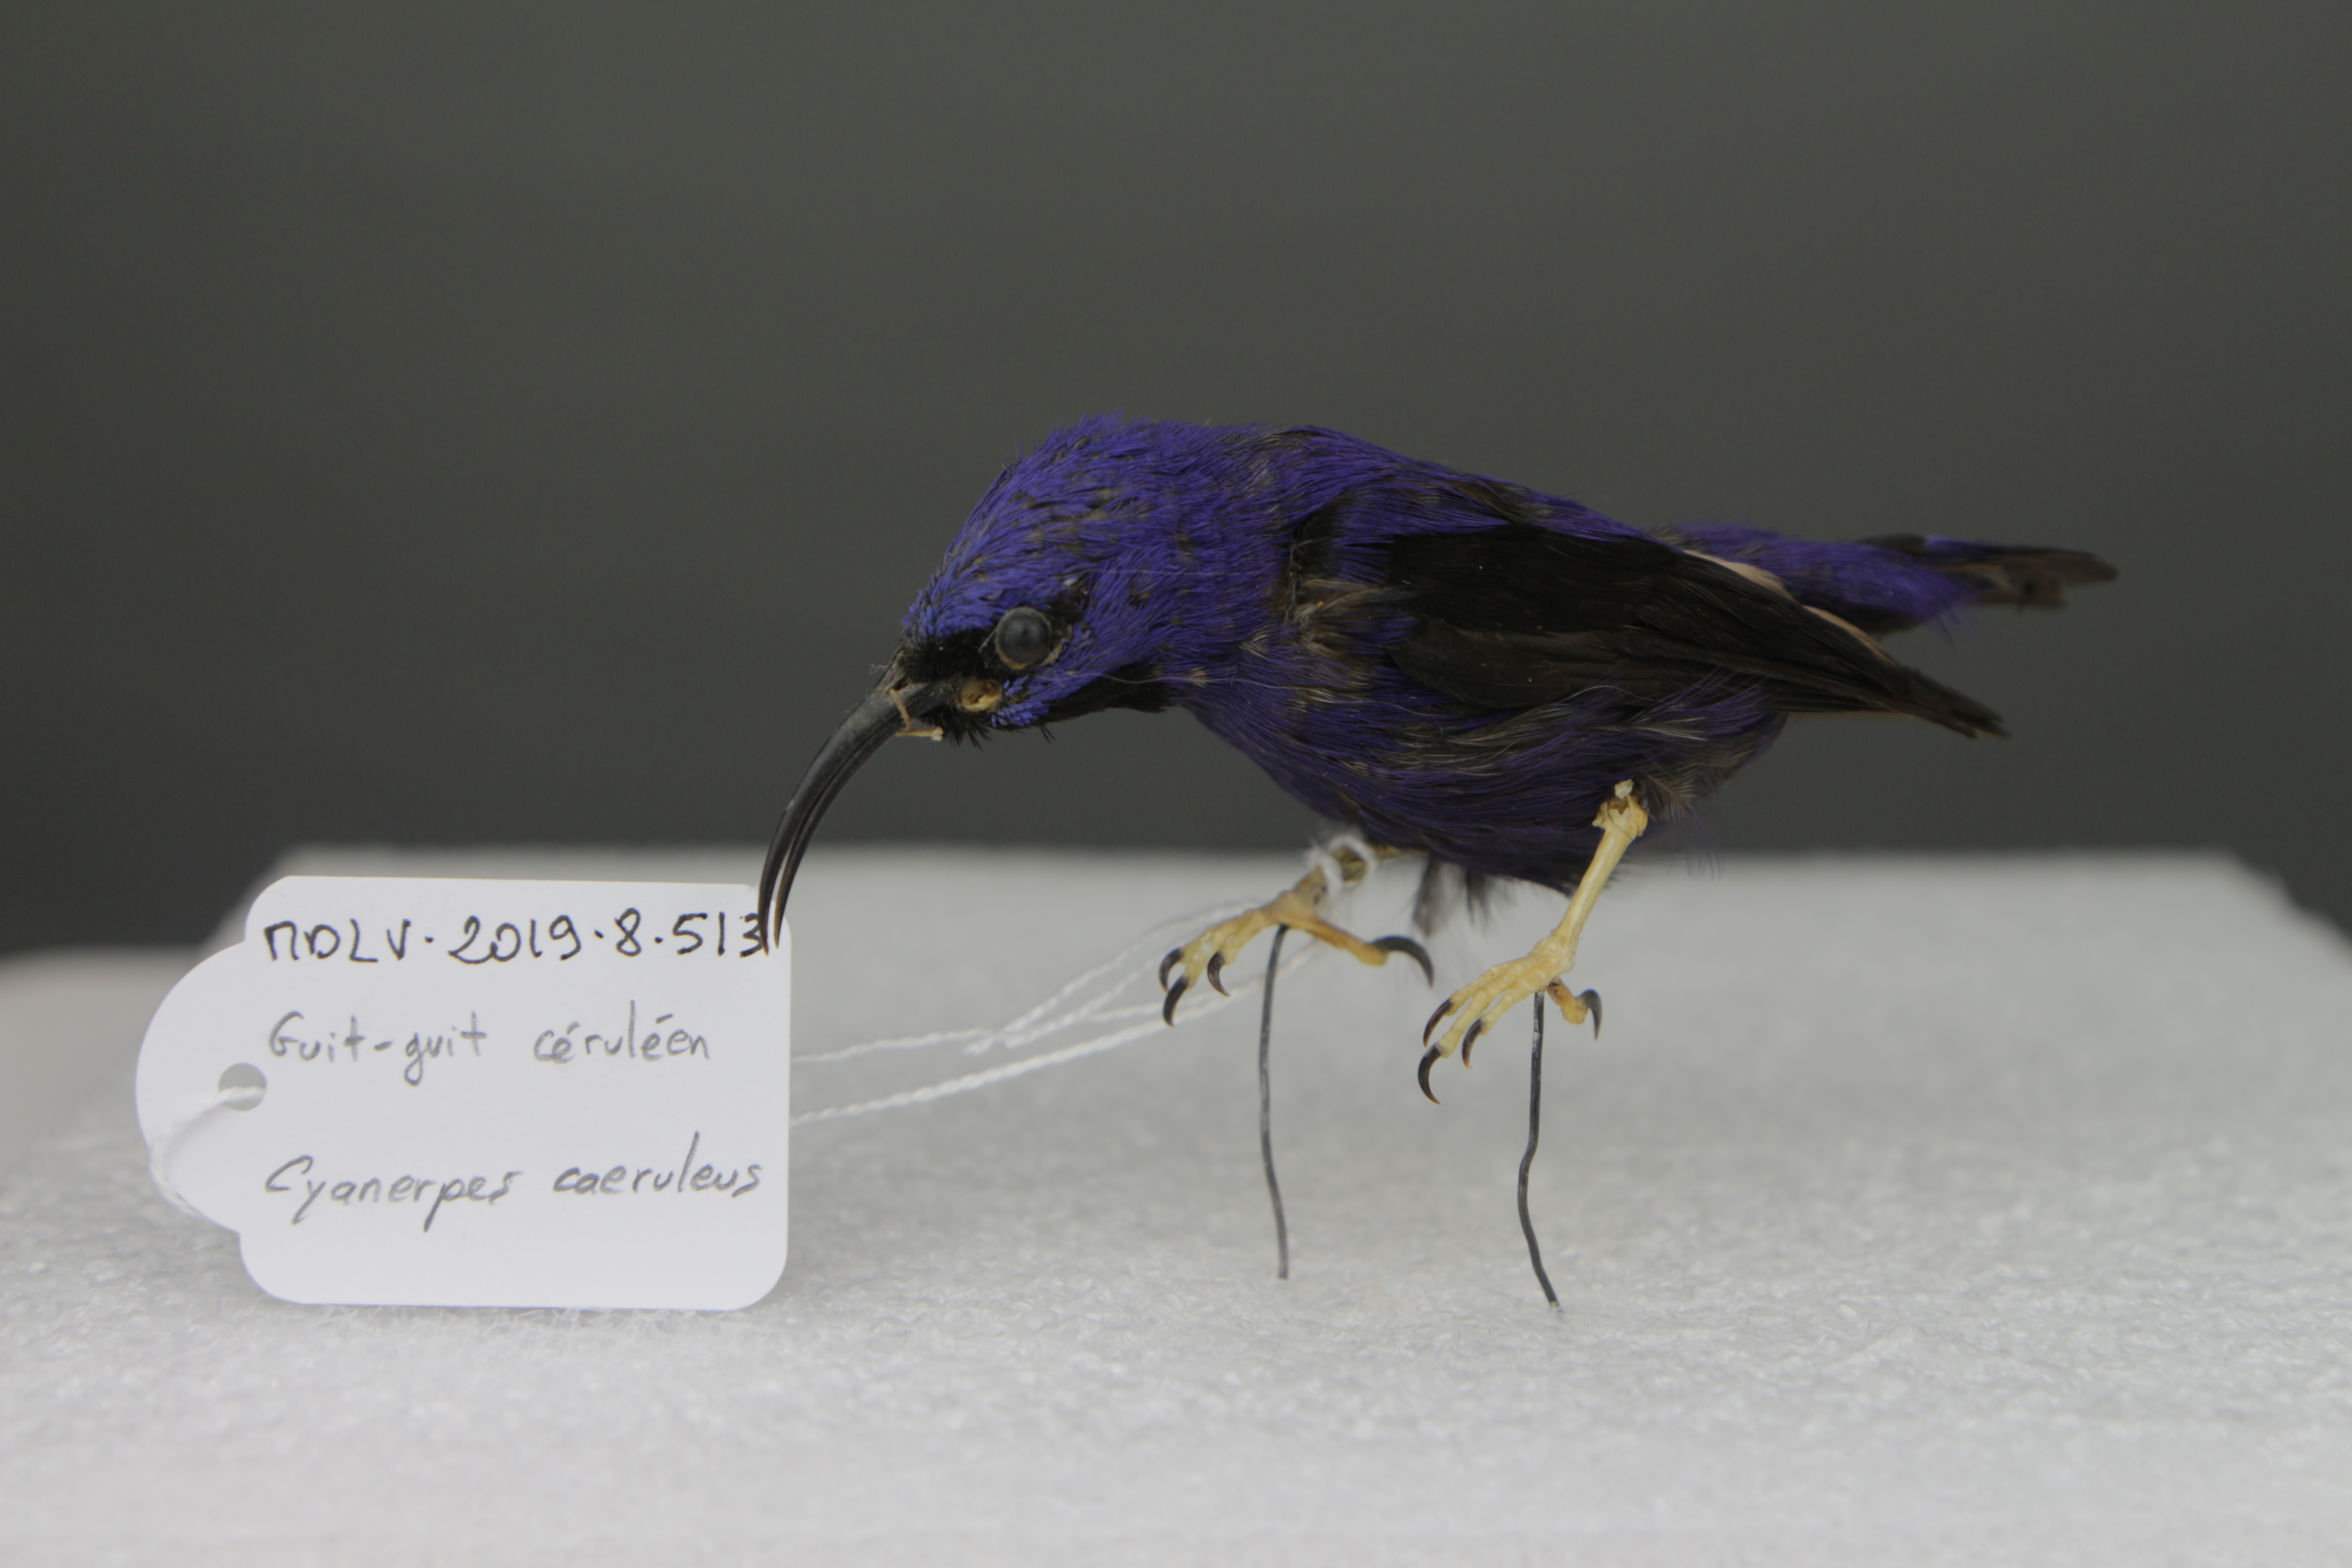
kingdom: Animalia
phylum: Chordata
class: Aves
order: Passeriformes
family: Thraupidae
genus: Cyanerpes
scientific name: Cyanerpes caeruleus
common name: Purple honeycreeper
